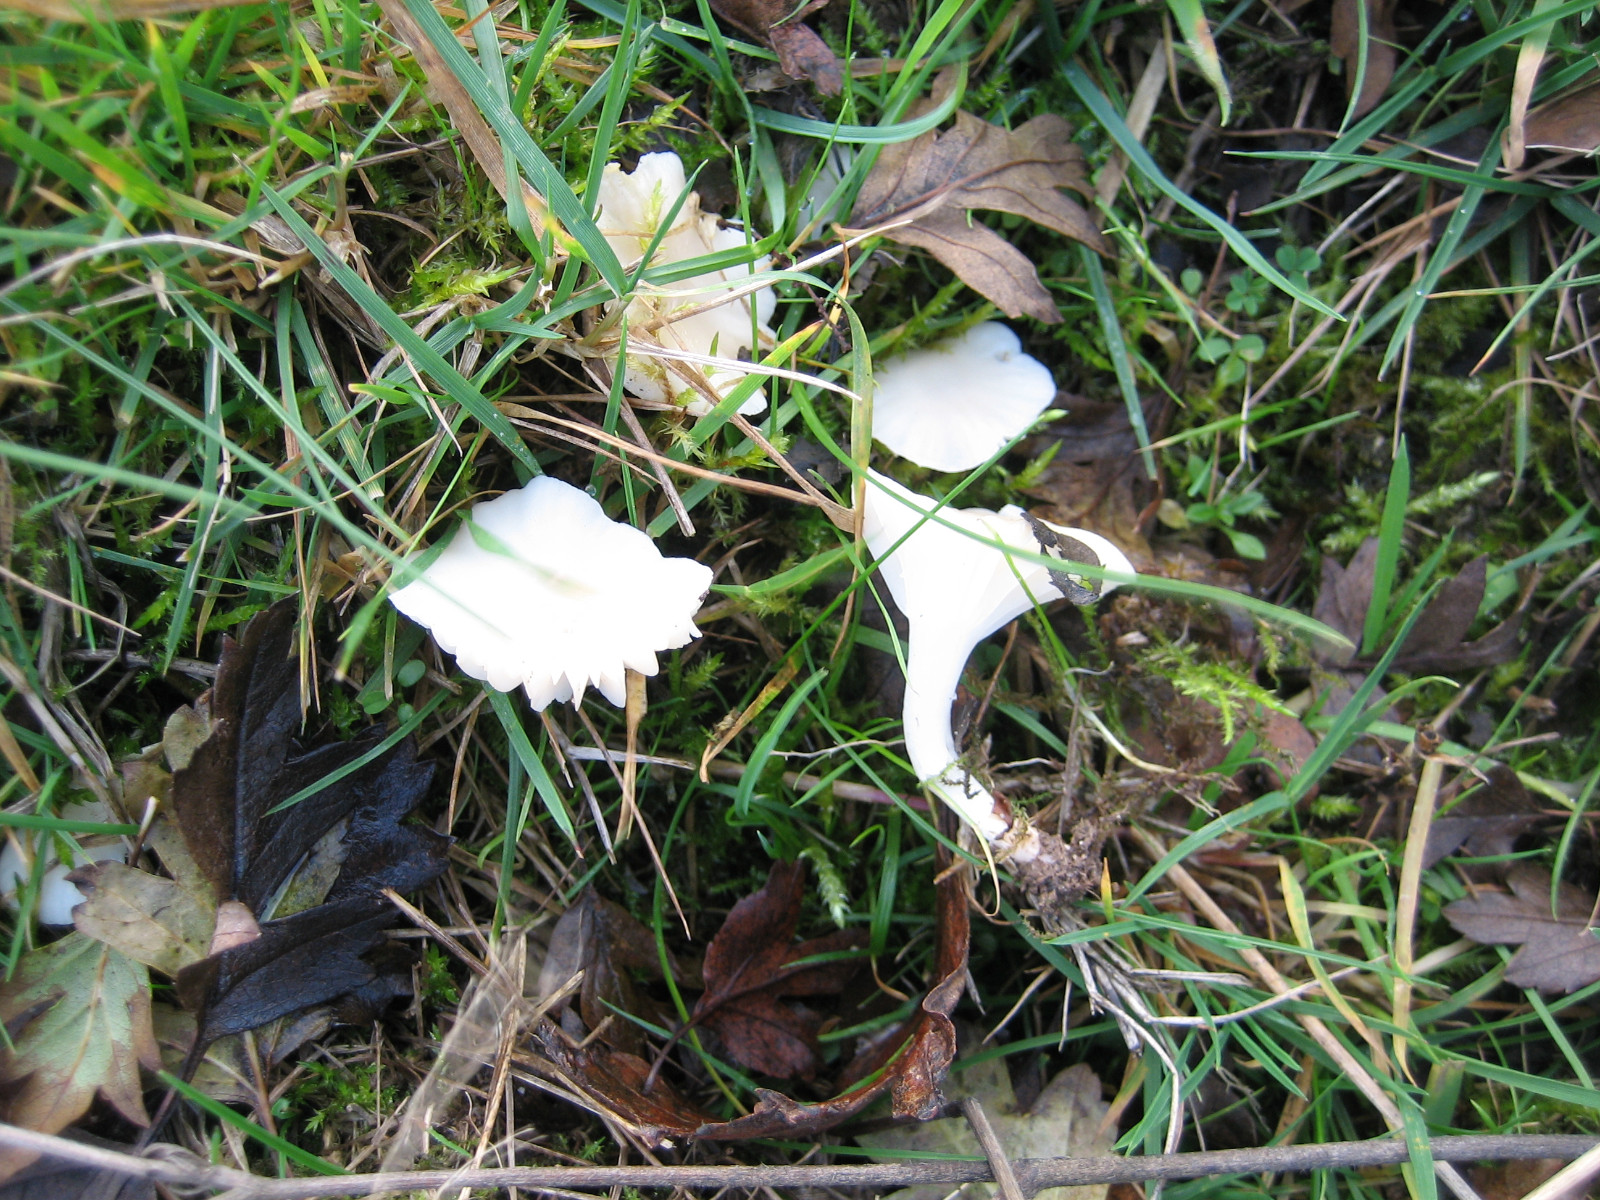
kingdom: Fungi
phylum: Basidiomycota
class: Agaricomycetes
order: Agaricales
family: Hygrophoraceae
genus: Cuphophyllus
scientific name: Cuphophyllus virgineus
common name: snehvid vokshat
